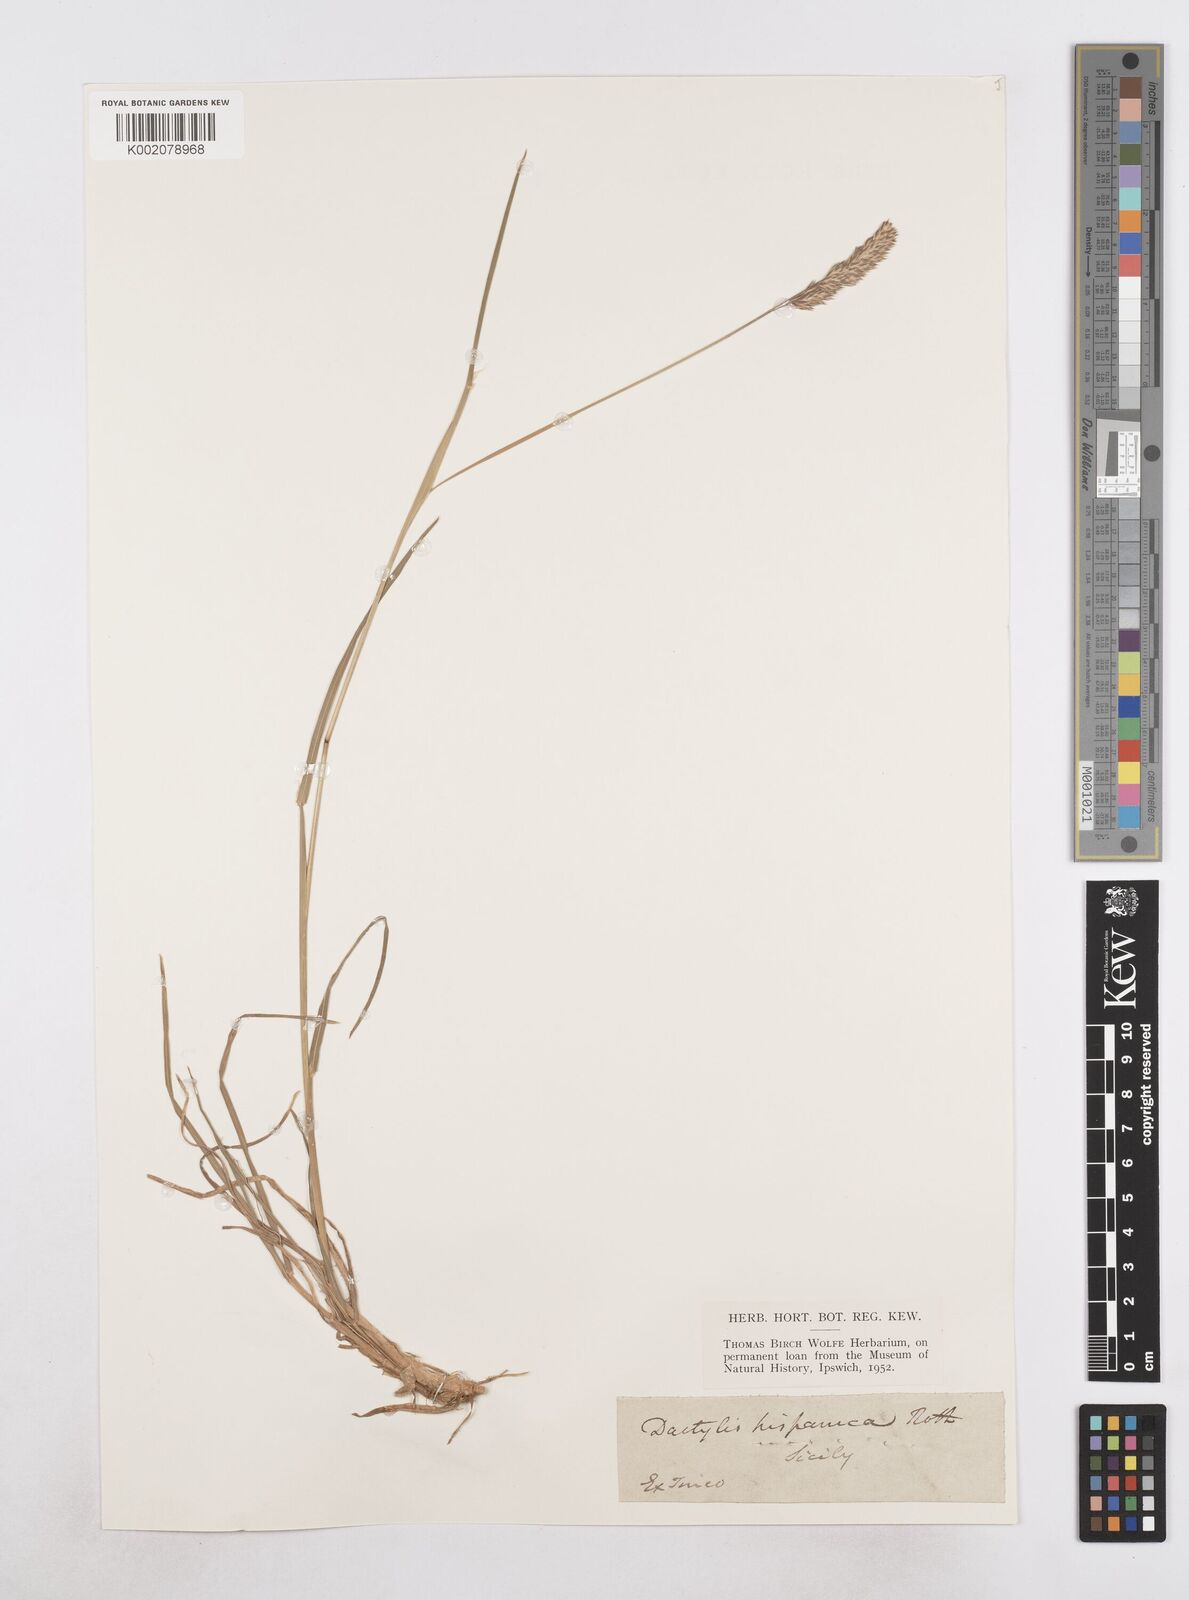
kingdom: Plantae
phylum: Tracheophyta
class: Liliopsida
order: Poales
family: Poaceae
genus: Dactylis
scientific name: Dactylis glomerata
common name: Orchardgrass
